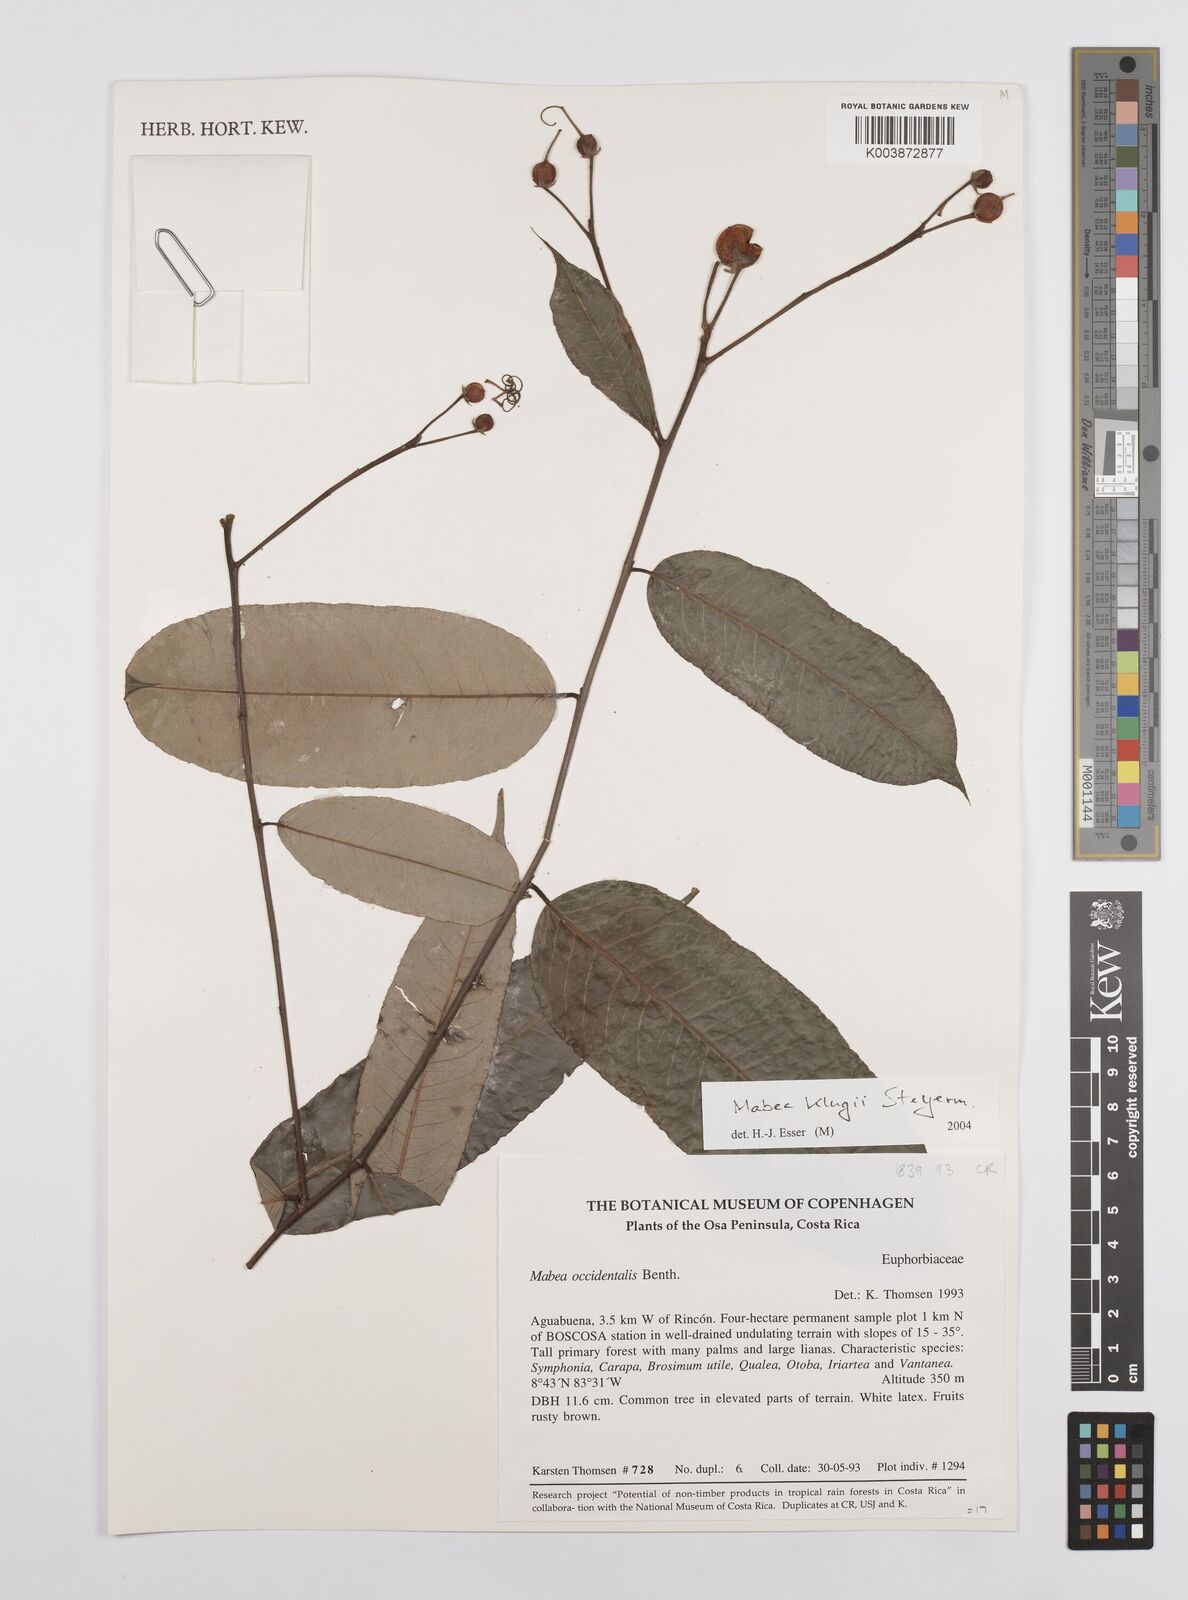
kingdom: Plantae
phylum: Tracheophyta
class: Magnoliopsida
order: Malpighiales
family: Euphorbiaceae
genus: Mabea
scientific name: Mabea klugii
